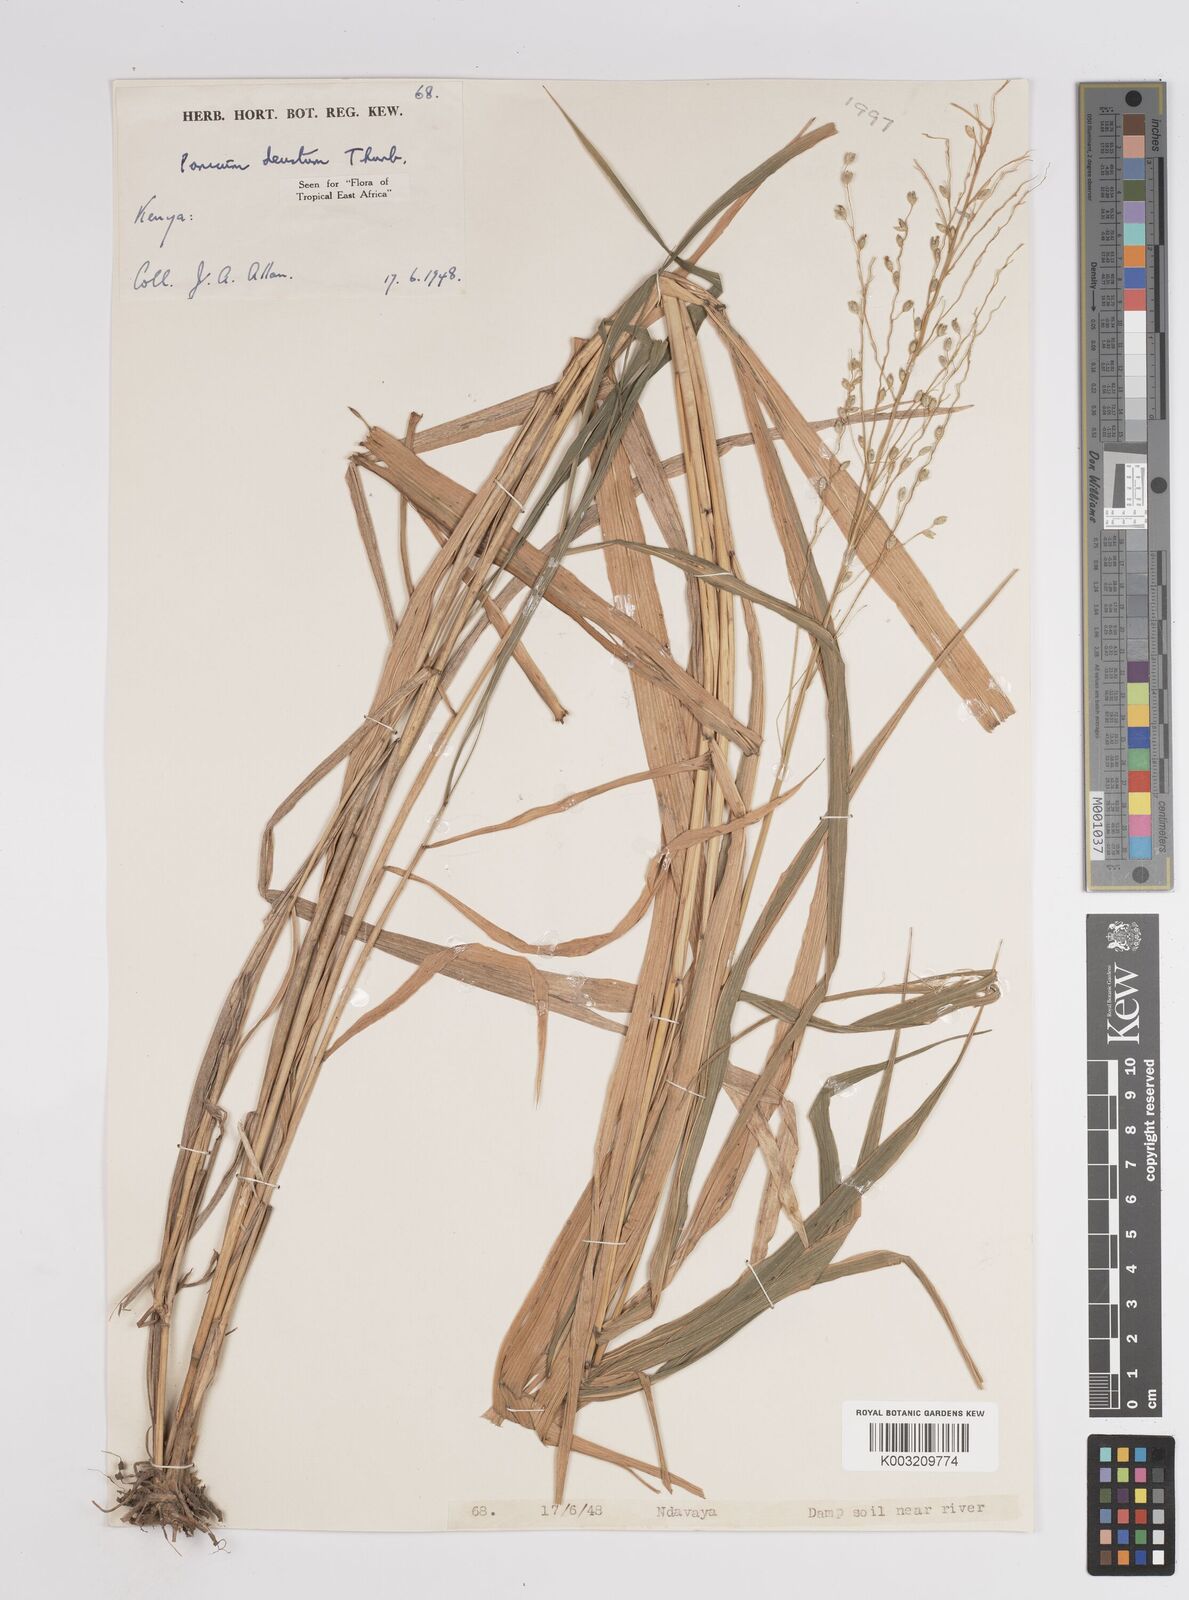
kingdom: Plantae
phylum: Tracheophyta
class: Liliopsida
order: Poales
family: Poaceae
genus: Panicum
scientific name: Panicum
